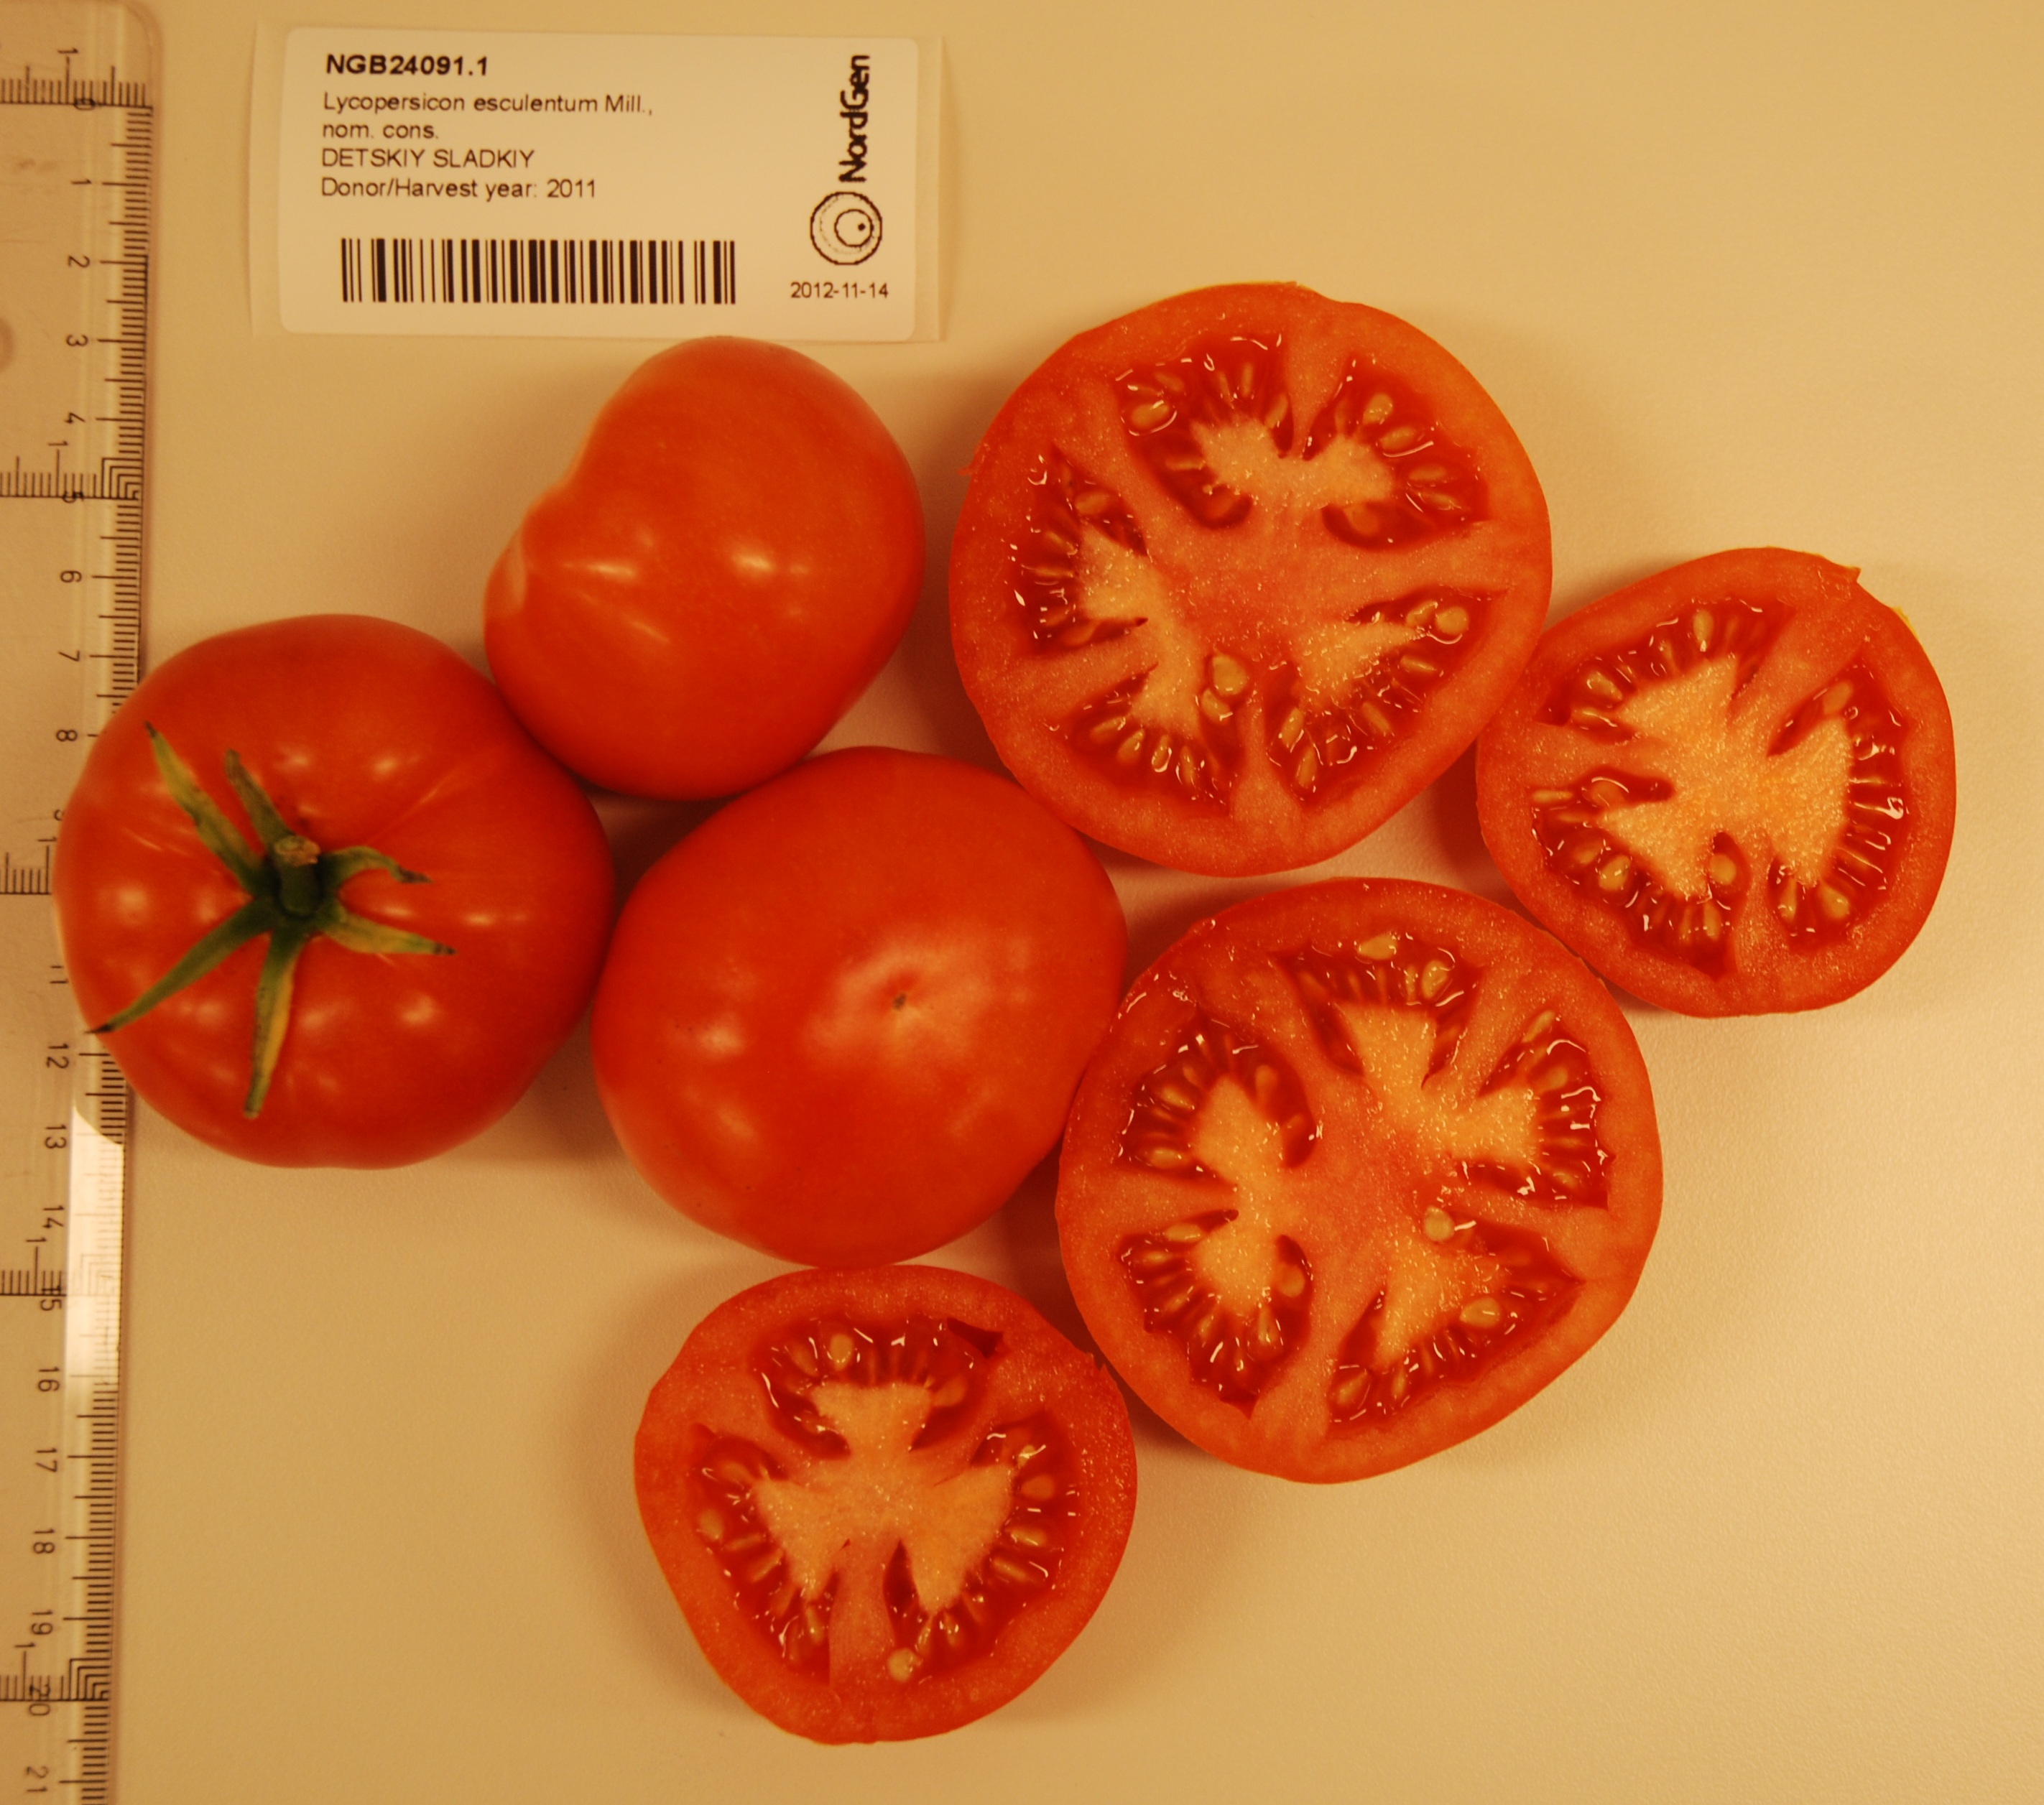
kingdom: Plantae
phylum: Tracheophyta
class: Magnoliopsida
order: Solanales
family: Solanaceae
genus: Solanum
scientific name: Solanum lycopersicum
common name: Garden tomato
